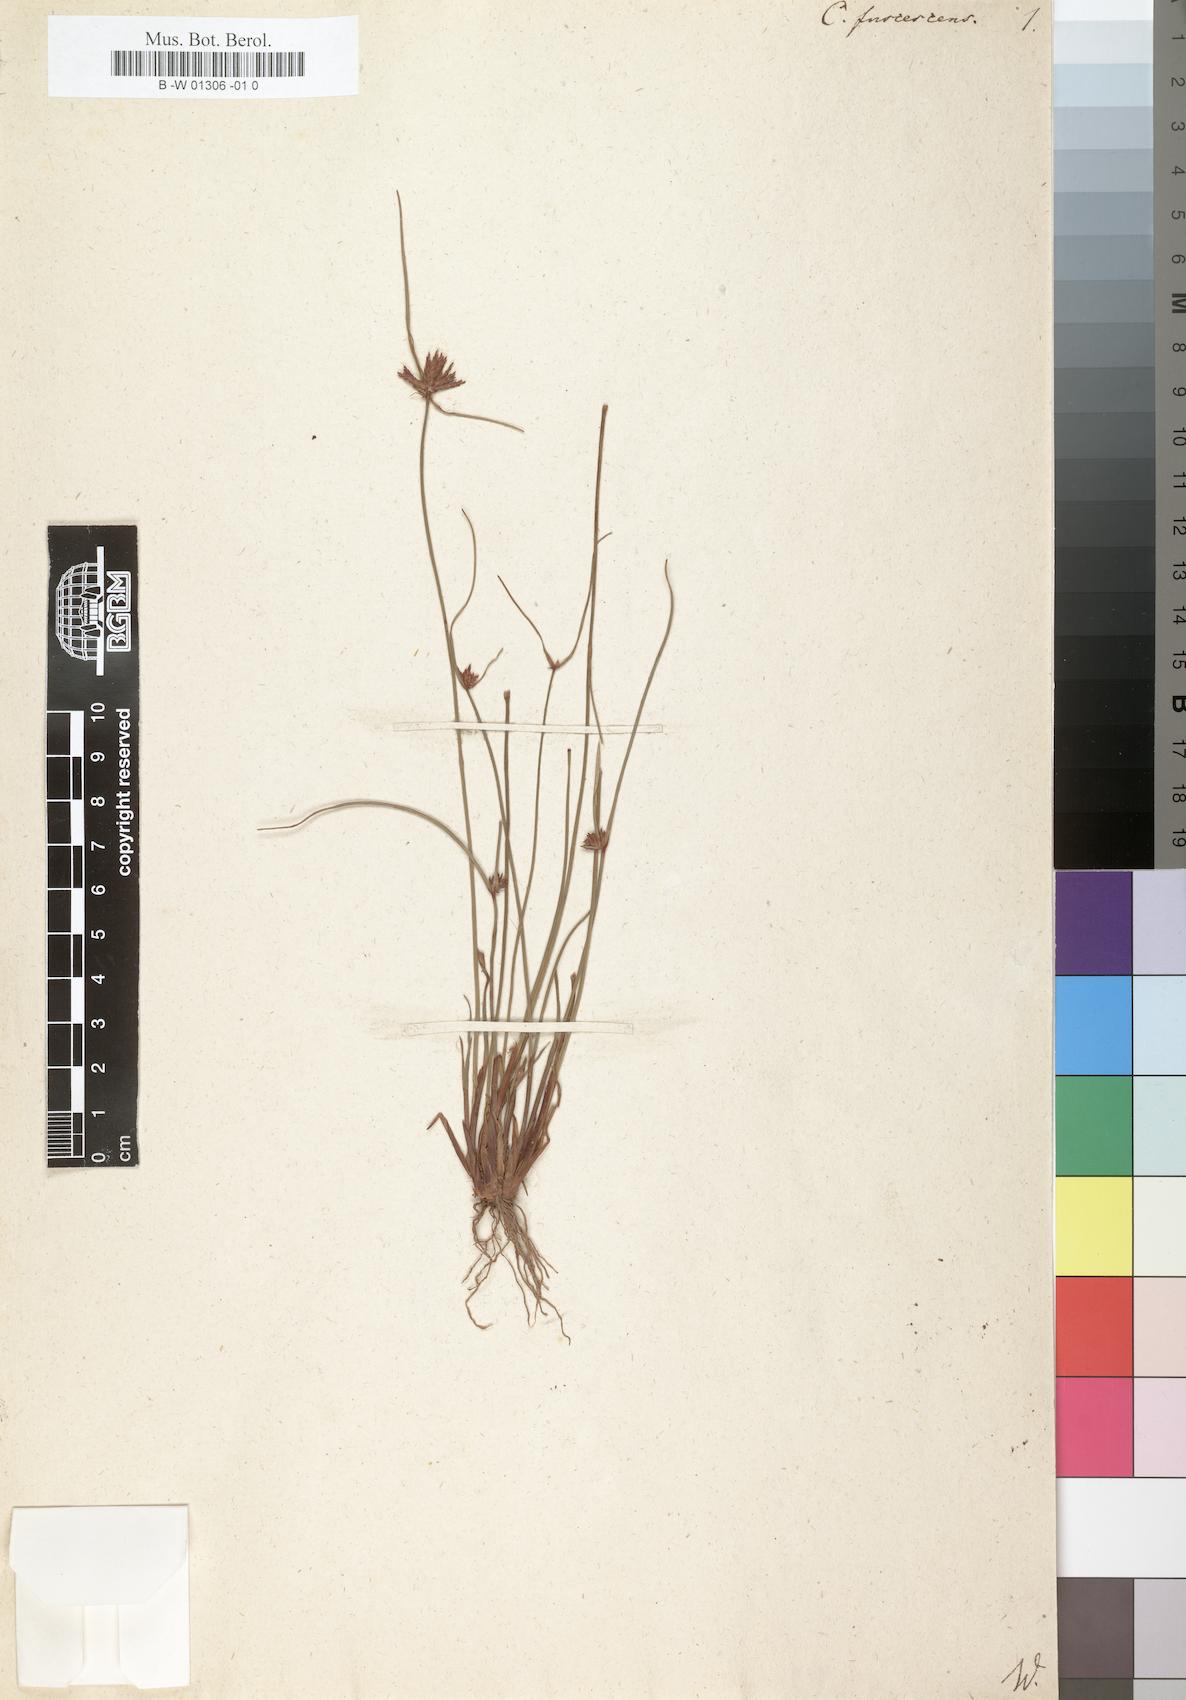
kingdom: Plantae
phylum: Tracheophyta
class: Liliopsida
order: Poales
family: Cyperaceae
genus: Cyperus
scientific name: Cyperus fuscescens
